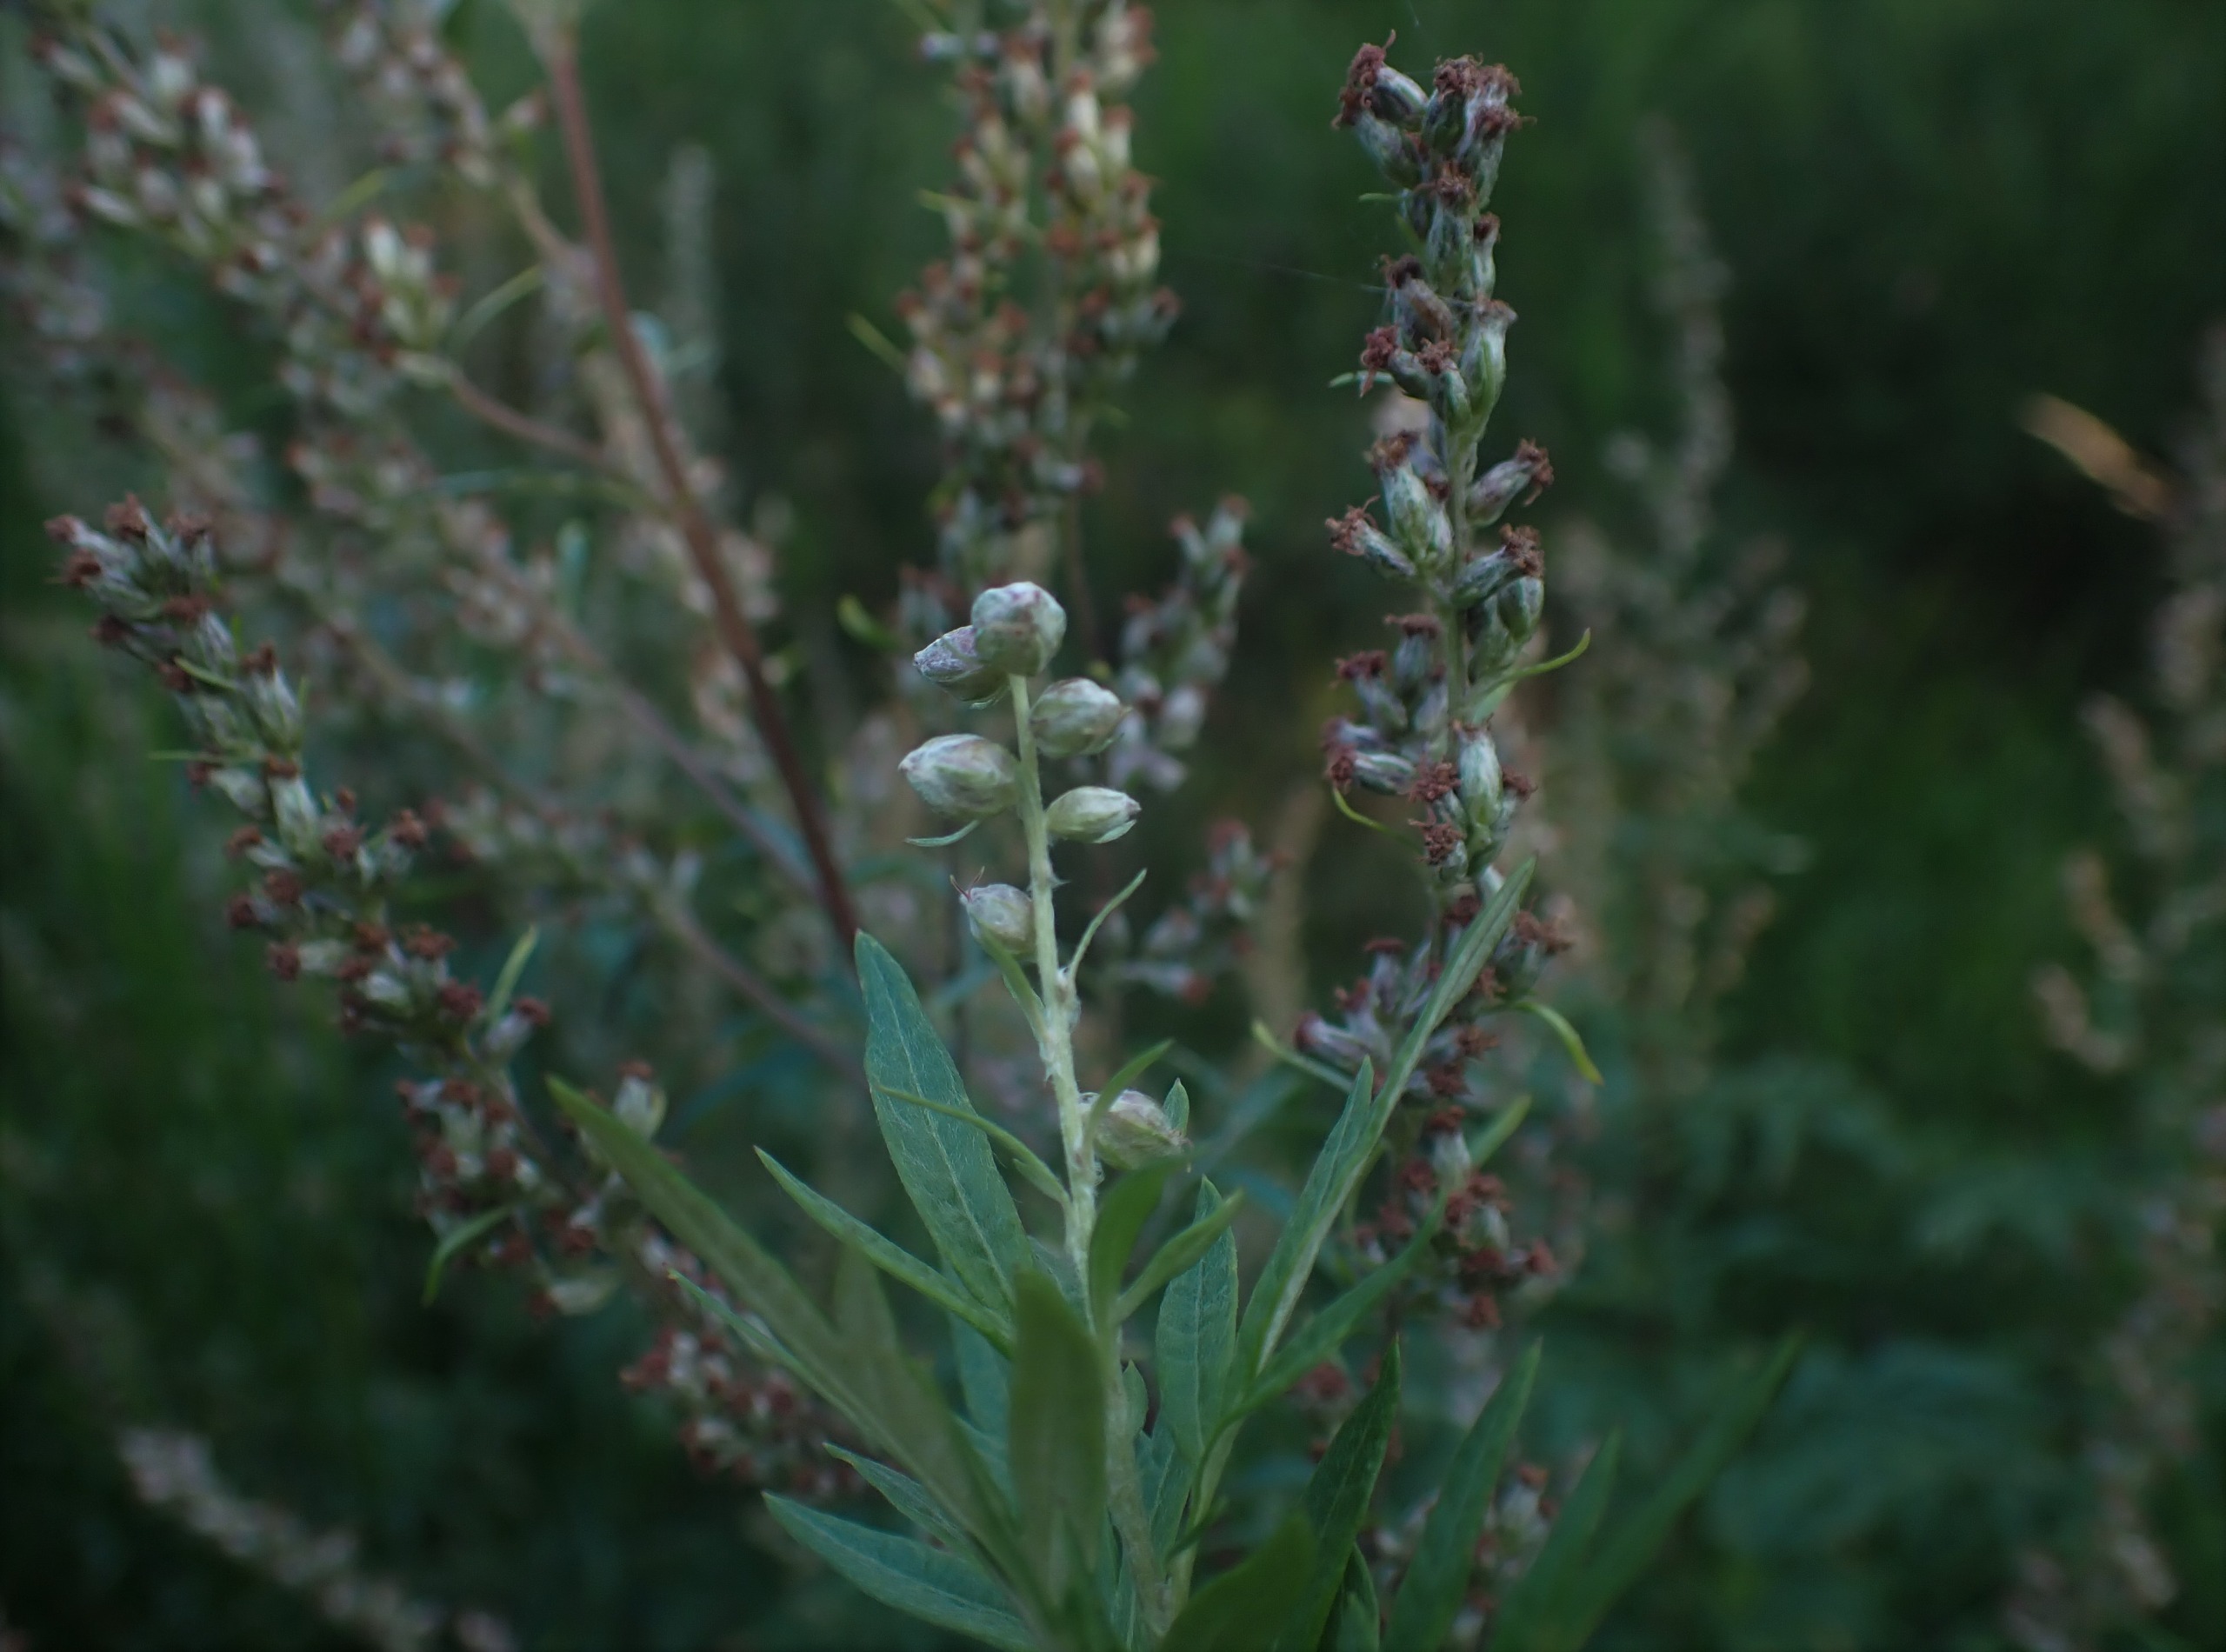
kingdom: Animalia
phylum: Arthropoda
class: Insecta
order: Diptera
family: Cecidomyiidae
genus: Ametrodiplosis
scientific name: Ametrodiplosis rudimentalis
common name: Bynkekurvgalmyg
